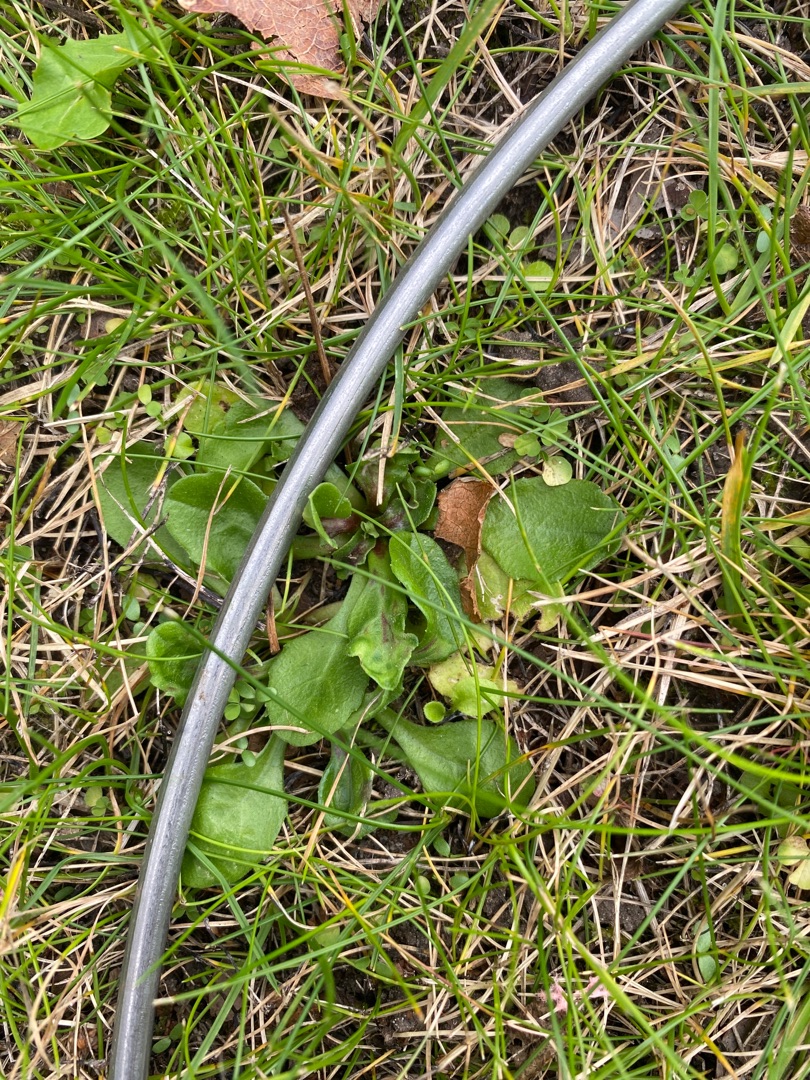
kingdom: Plantae
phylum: Tracheophyta
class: Magnoliopsida
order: Asterales
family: Asteraceae
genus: Bellis
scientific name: Bellis perennis
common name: Tusindfryd
